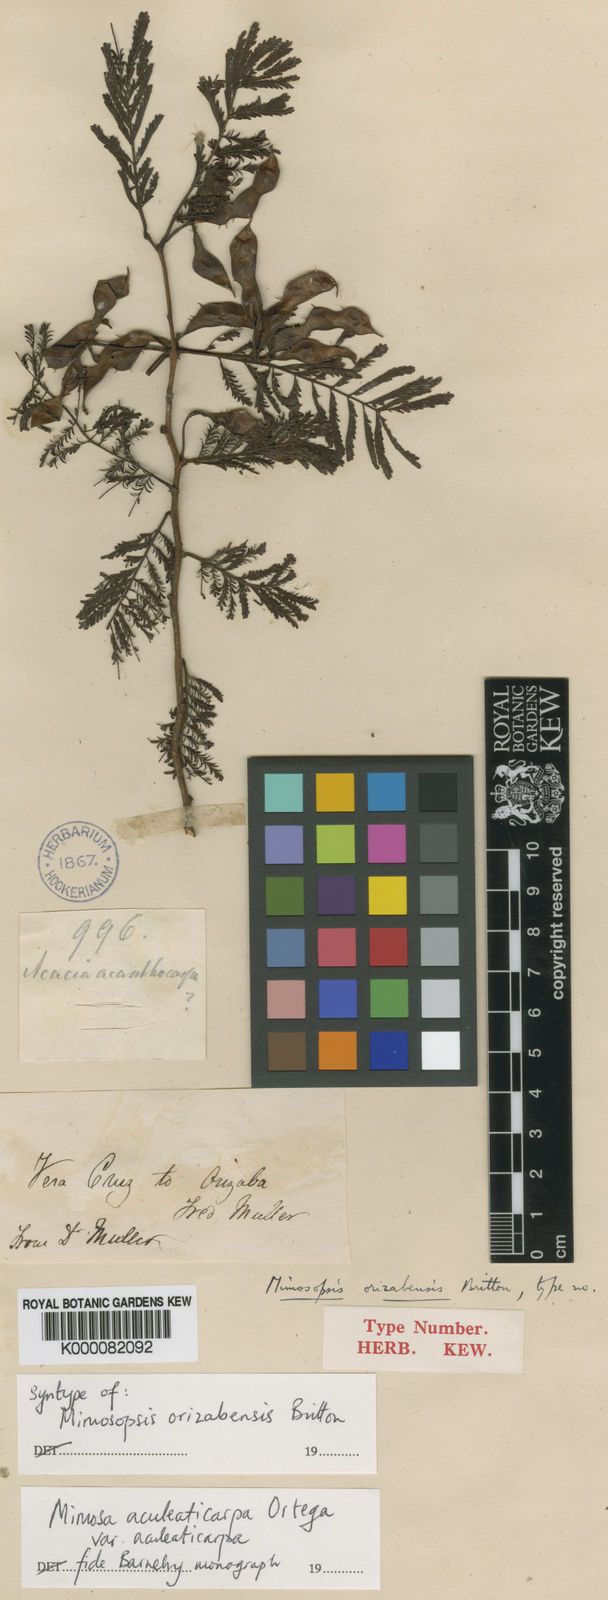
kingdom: Plantae
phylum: Tracheophyta
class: Magnoliopsida
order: Fabales
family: Fabaceae
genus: Mimosa
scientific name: Mimosa aculeaticarpa
